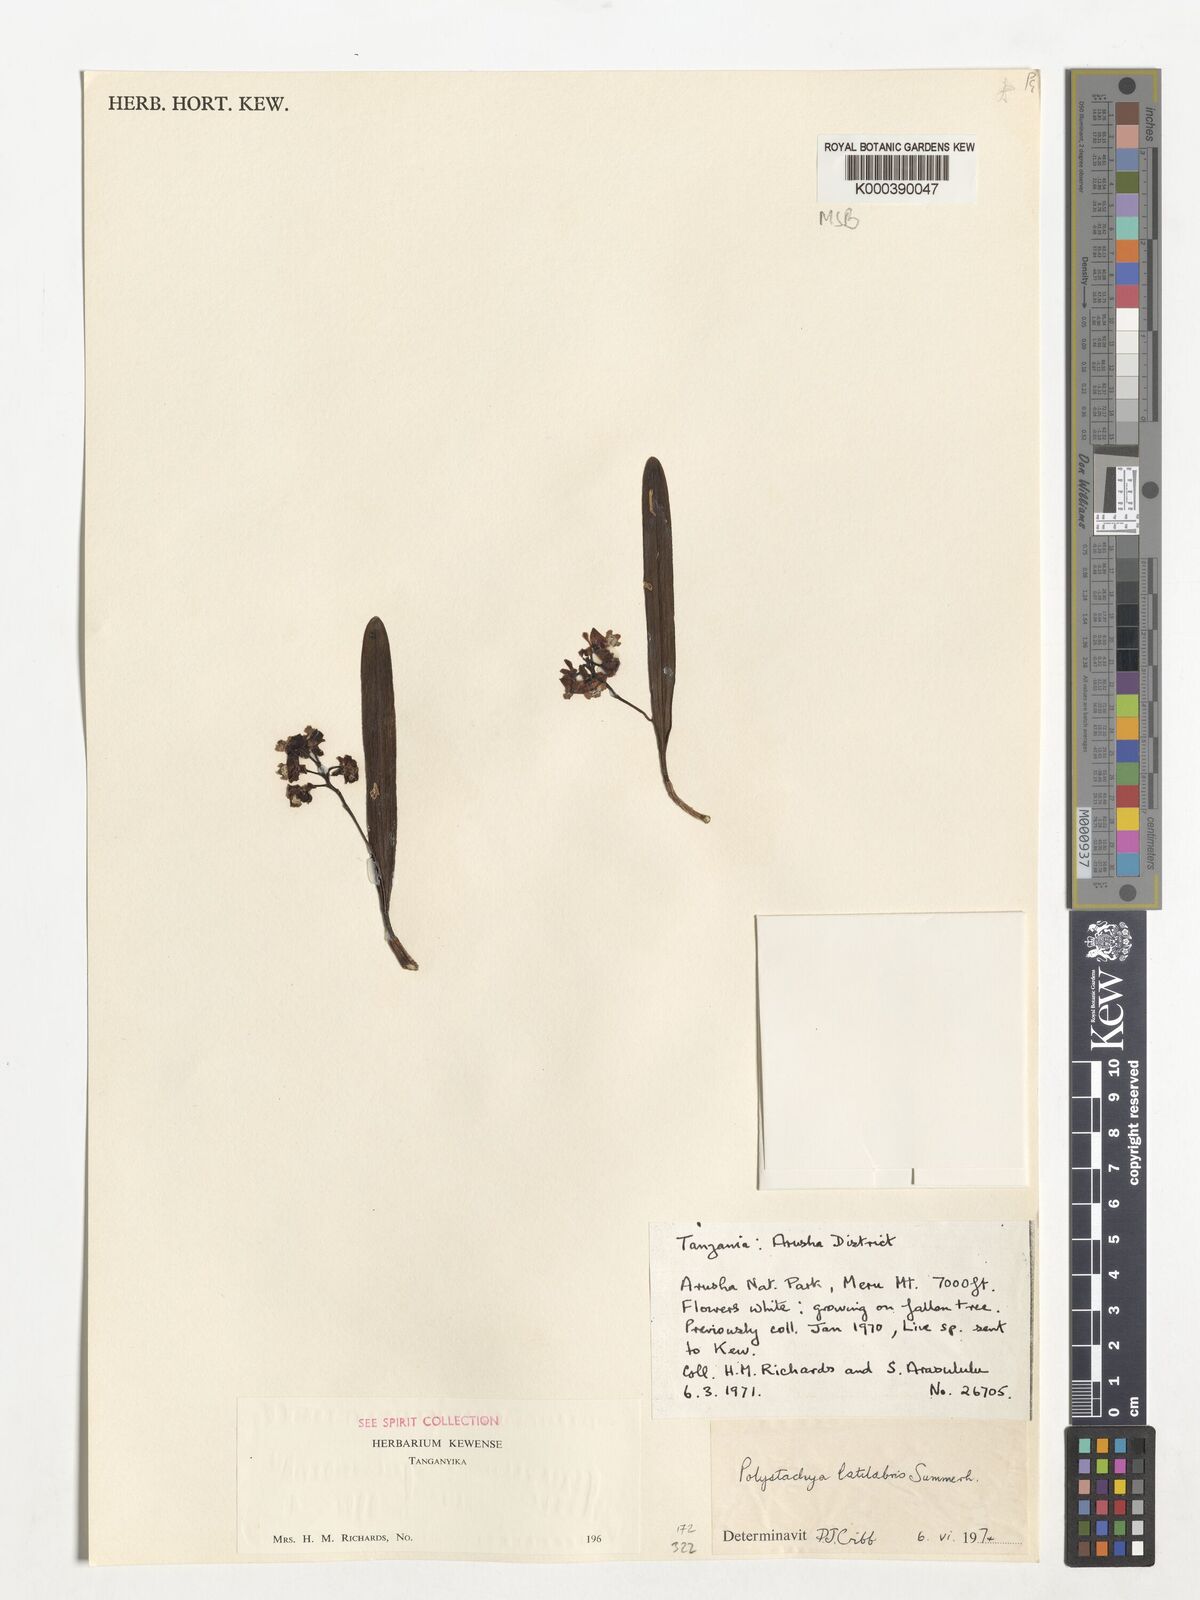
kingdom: Plantae
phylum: Tracheophyta
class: Liliopsida
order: Asparagales
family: Orchidaceae
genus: Polystachya
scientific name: Polystachya caespitifica
